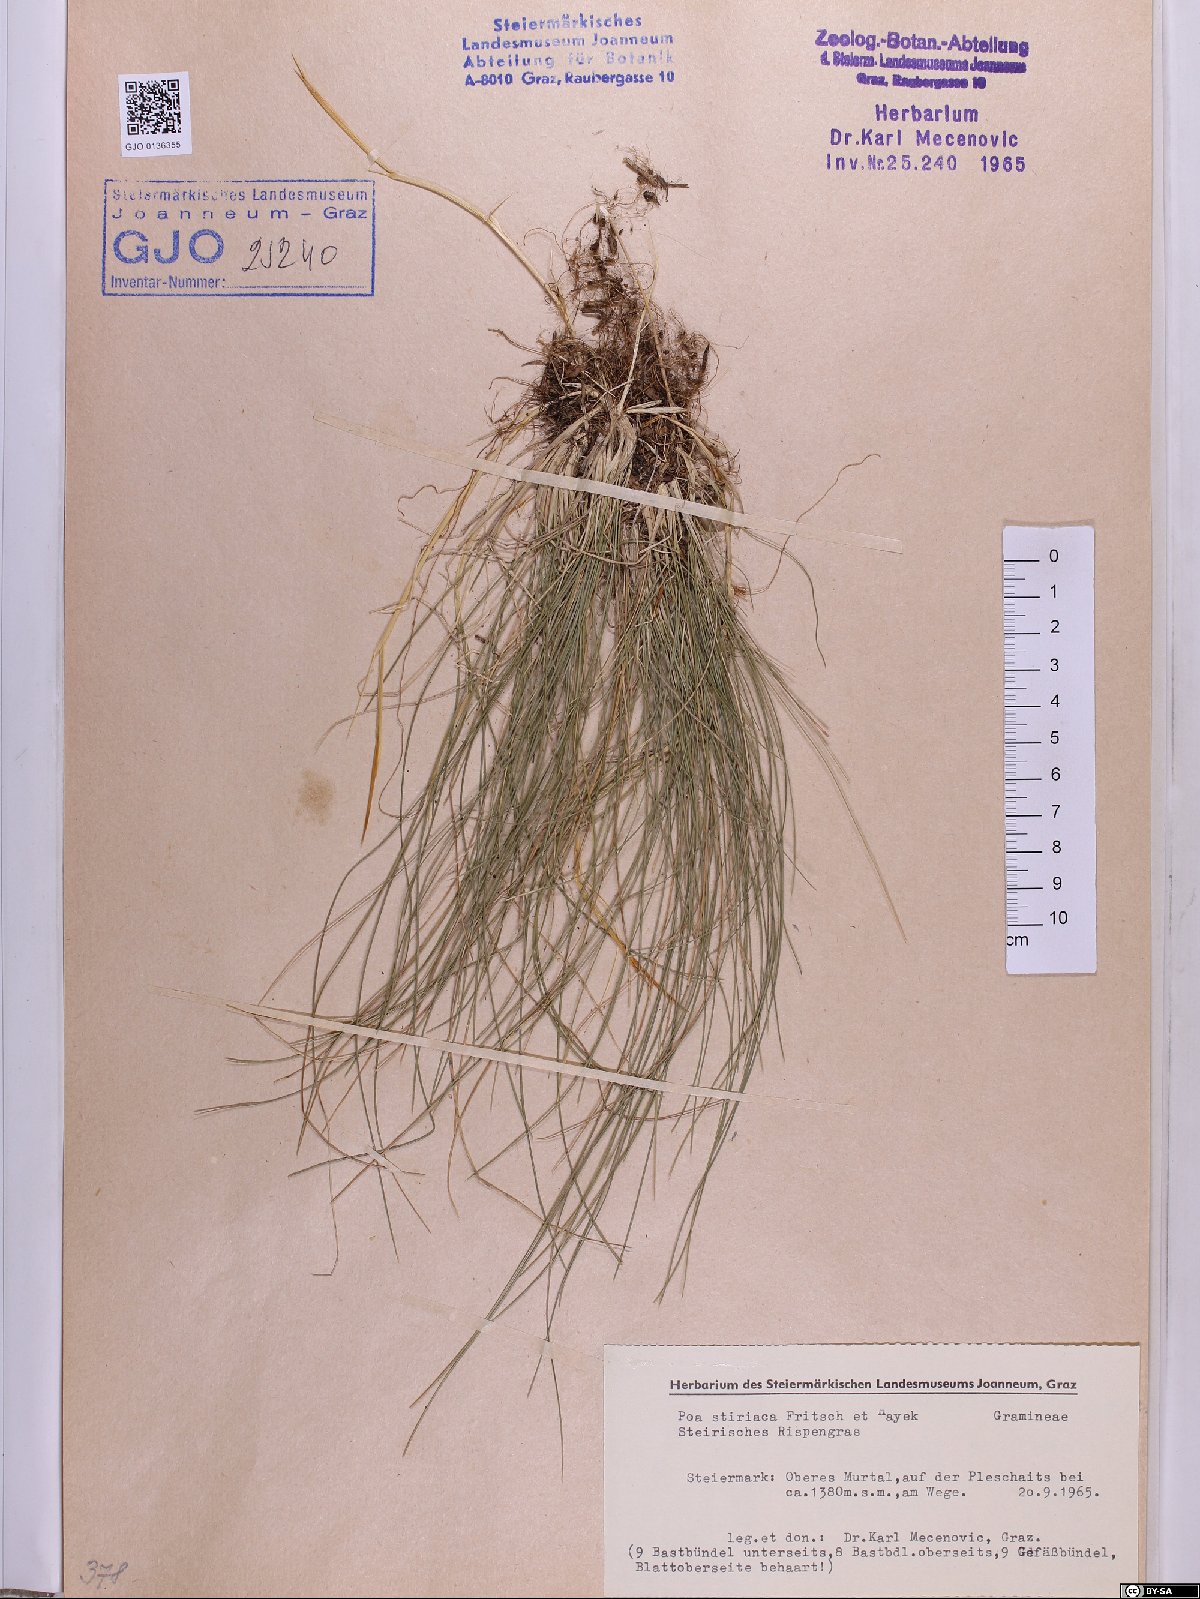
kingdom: Plantae
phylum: Tracheophyta
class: Liliopsida
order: Poales
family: Poaceae
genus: Poa
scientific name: Poa stiriaca
